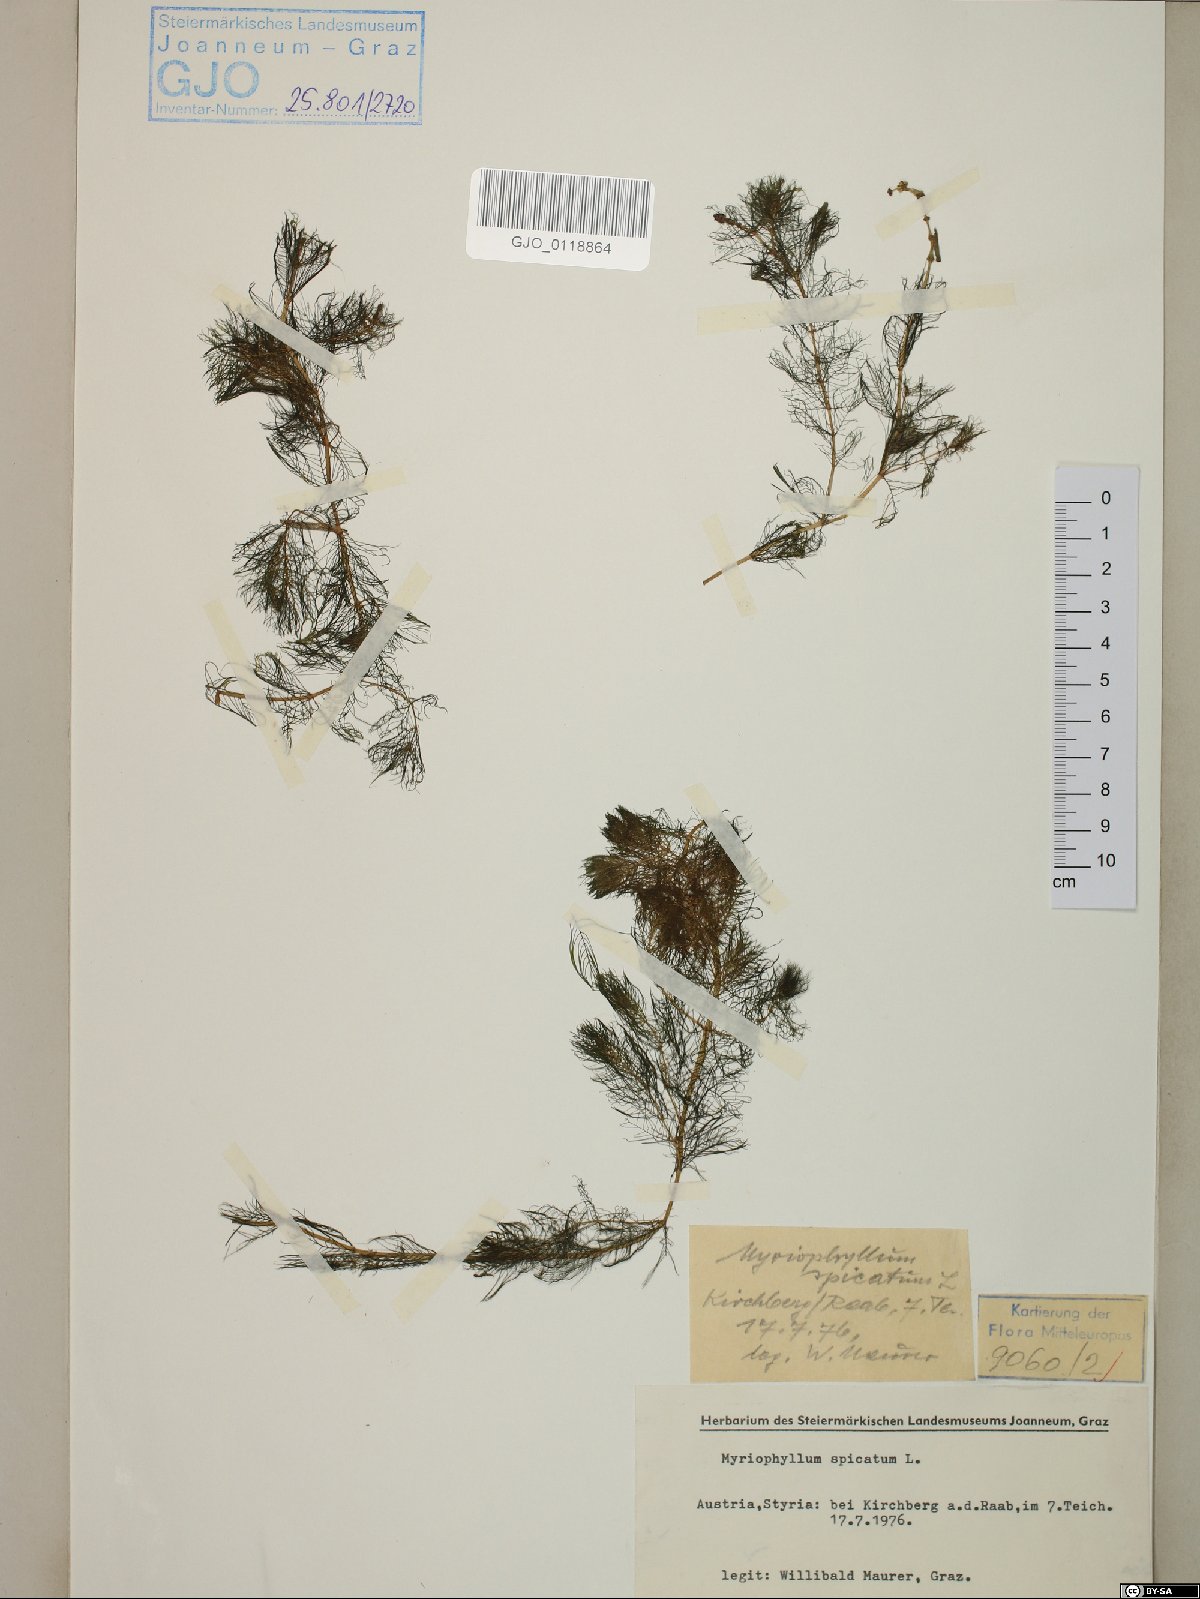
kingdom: Plantae
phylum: Tracheophyta
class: Magnoliopsida
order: Saxifragales
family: Haloragaceae
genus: Myriophyllum
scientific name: Myriophyllum spicatum
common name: Spiked water-milfoil
